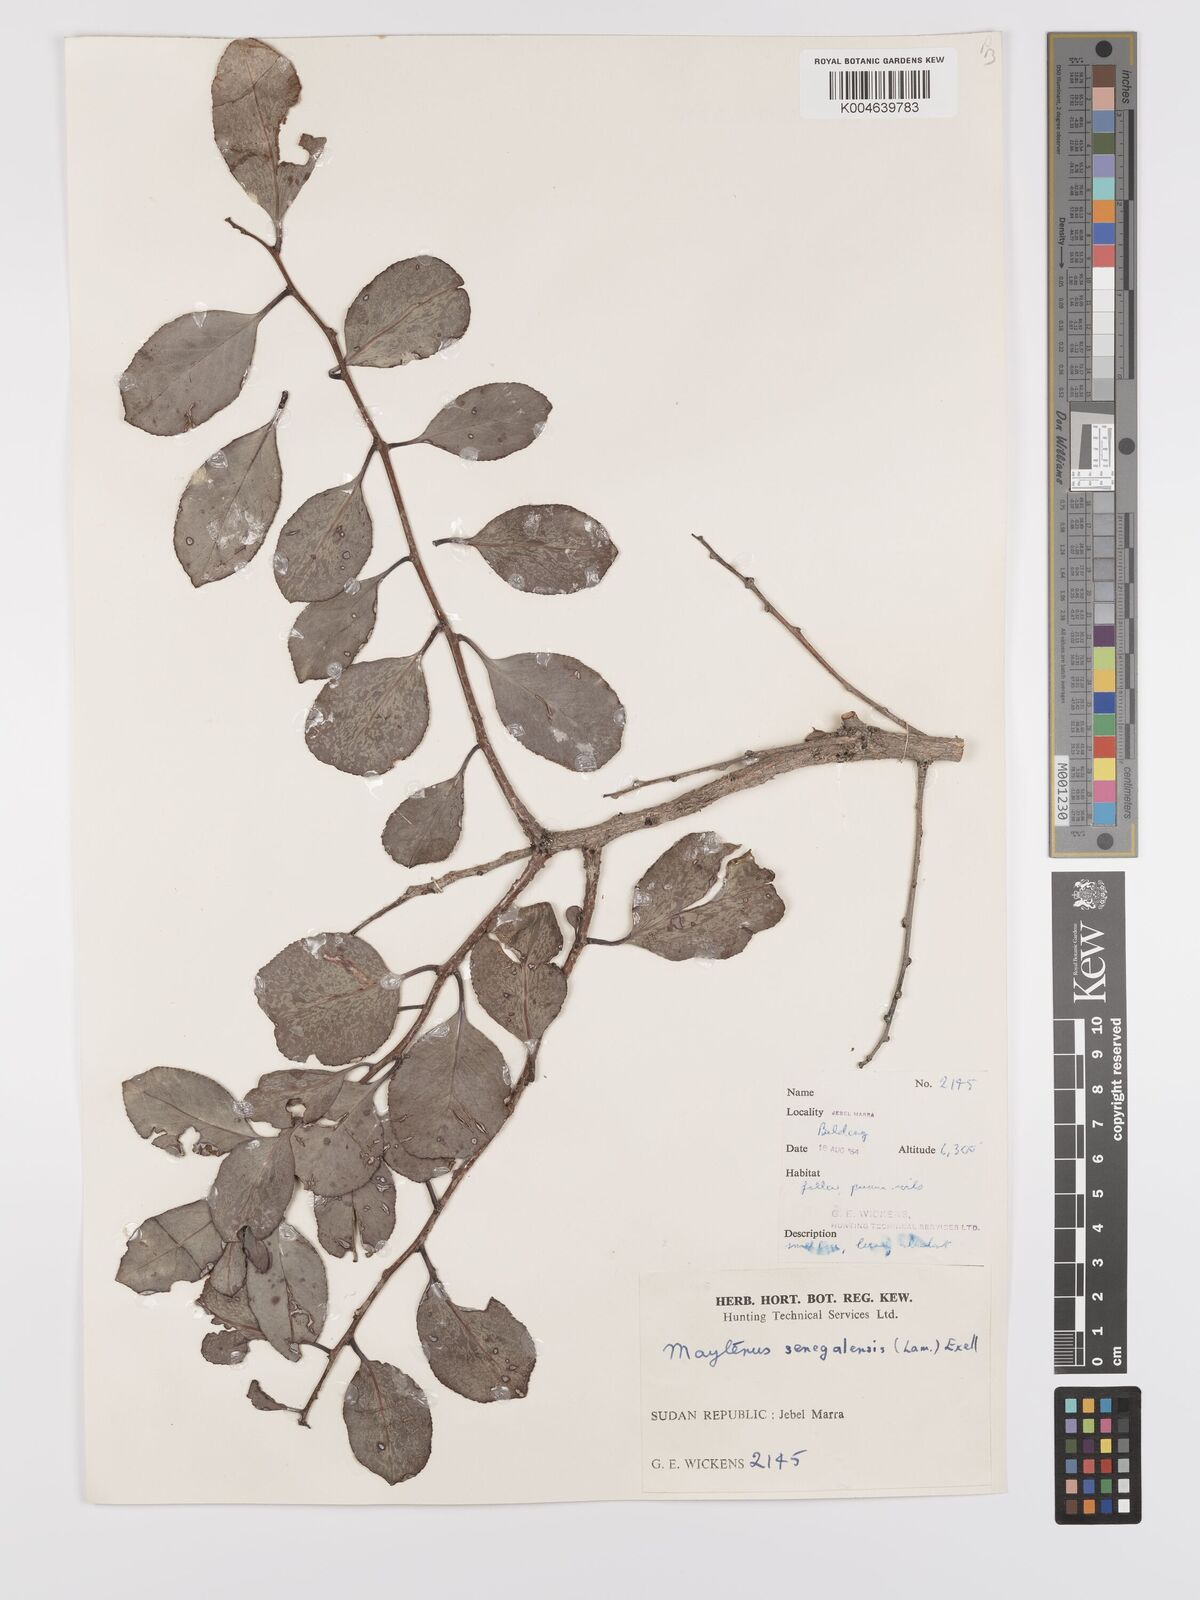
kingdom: Plantae
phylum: Tracheophyta
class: Magnoliopsida
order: Celastrales
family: Celastraceae
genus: Gymnosporia
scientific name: Gymnosporia senegalensis
